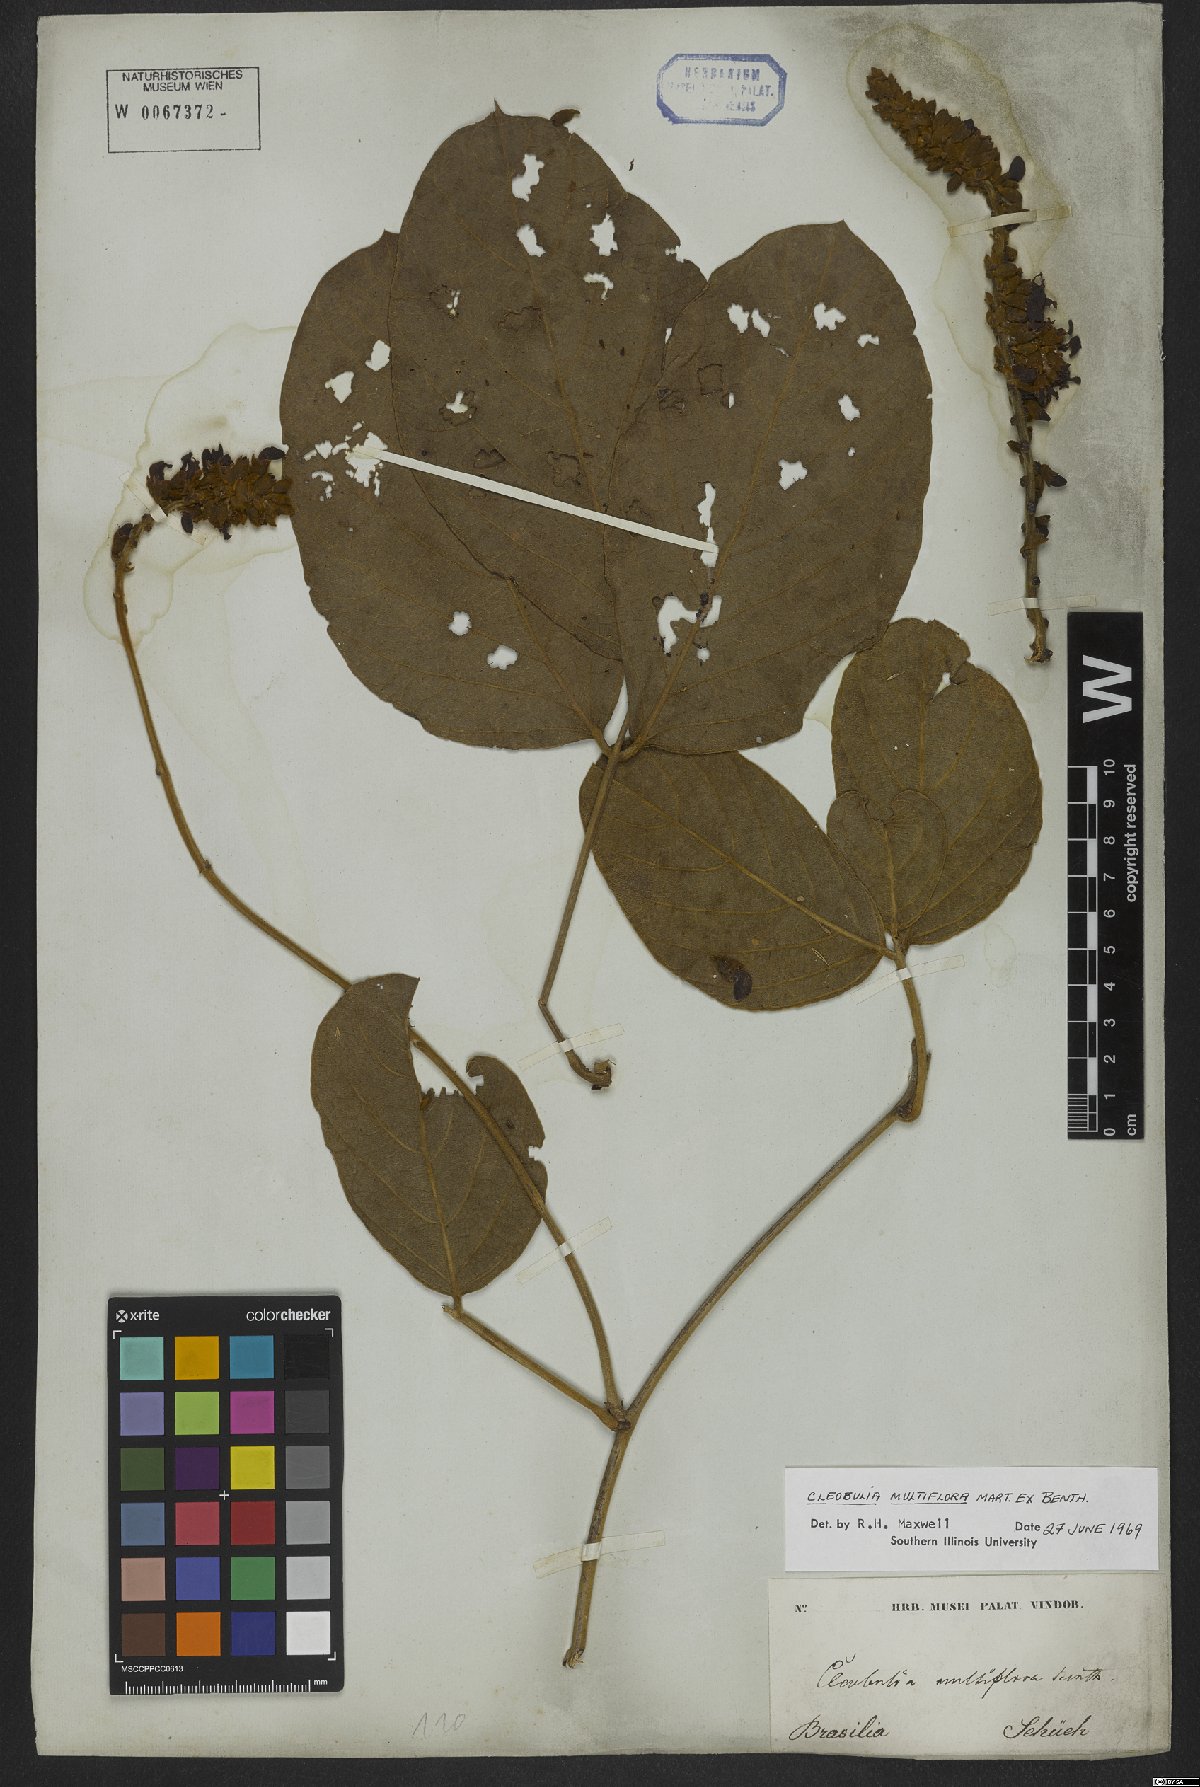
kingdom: Plantae
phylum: Tracheophyta
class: Magnoliopsida
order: Fabales
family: Fabaceae
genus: Cleobulia
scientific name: Cleobulia coccinea
